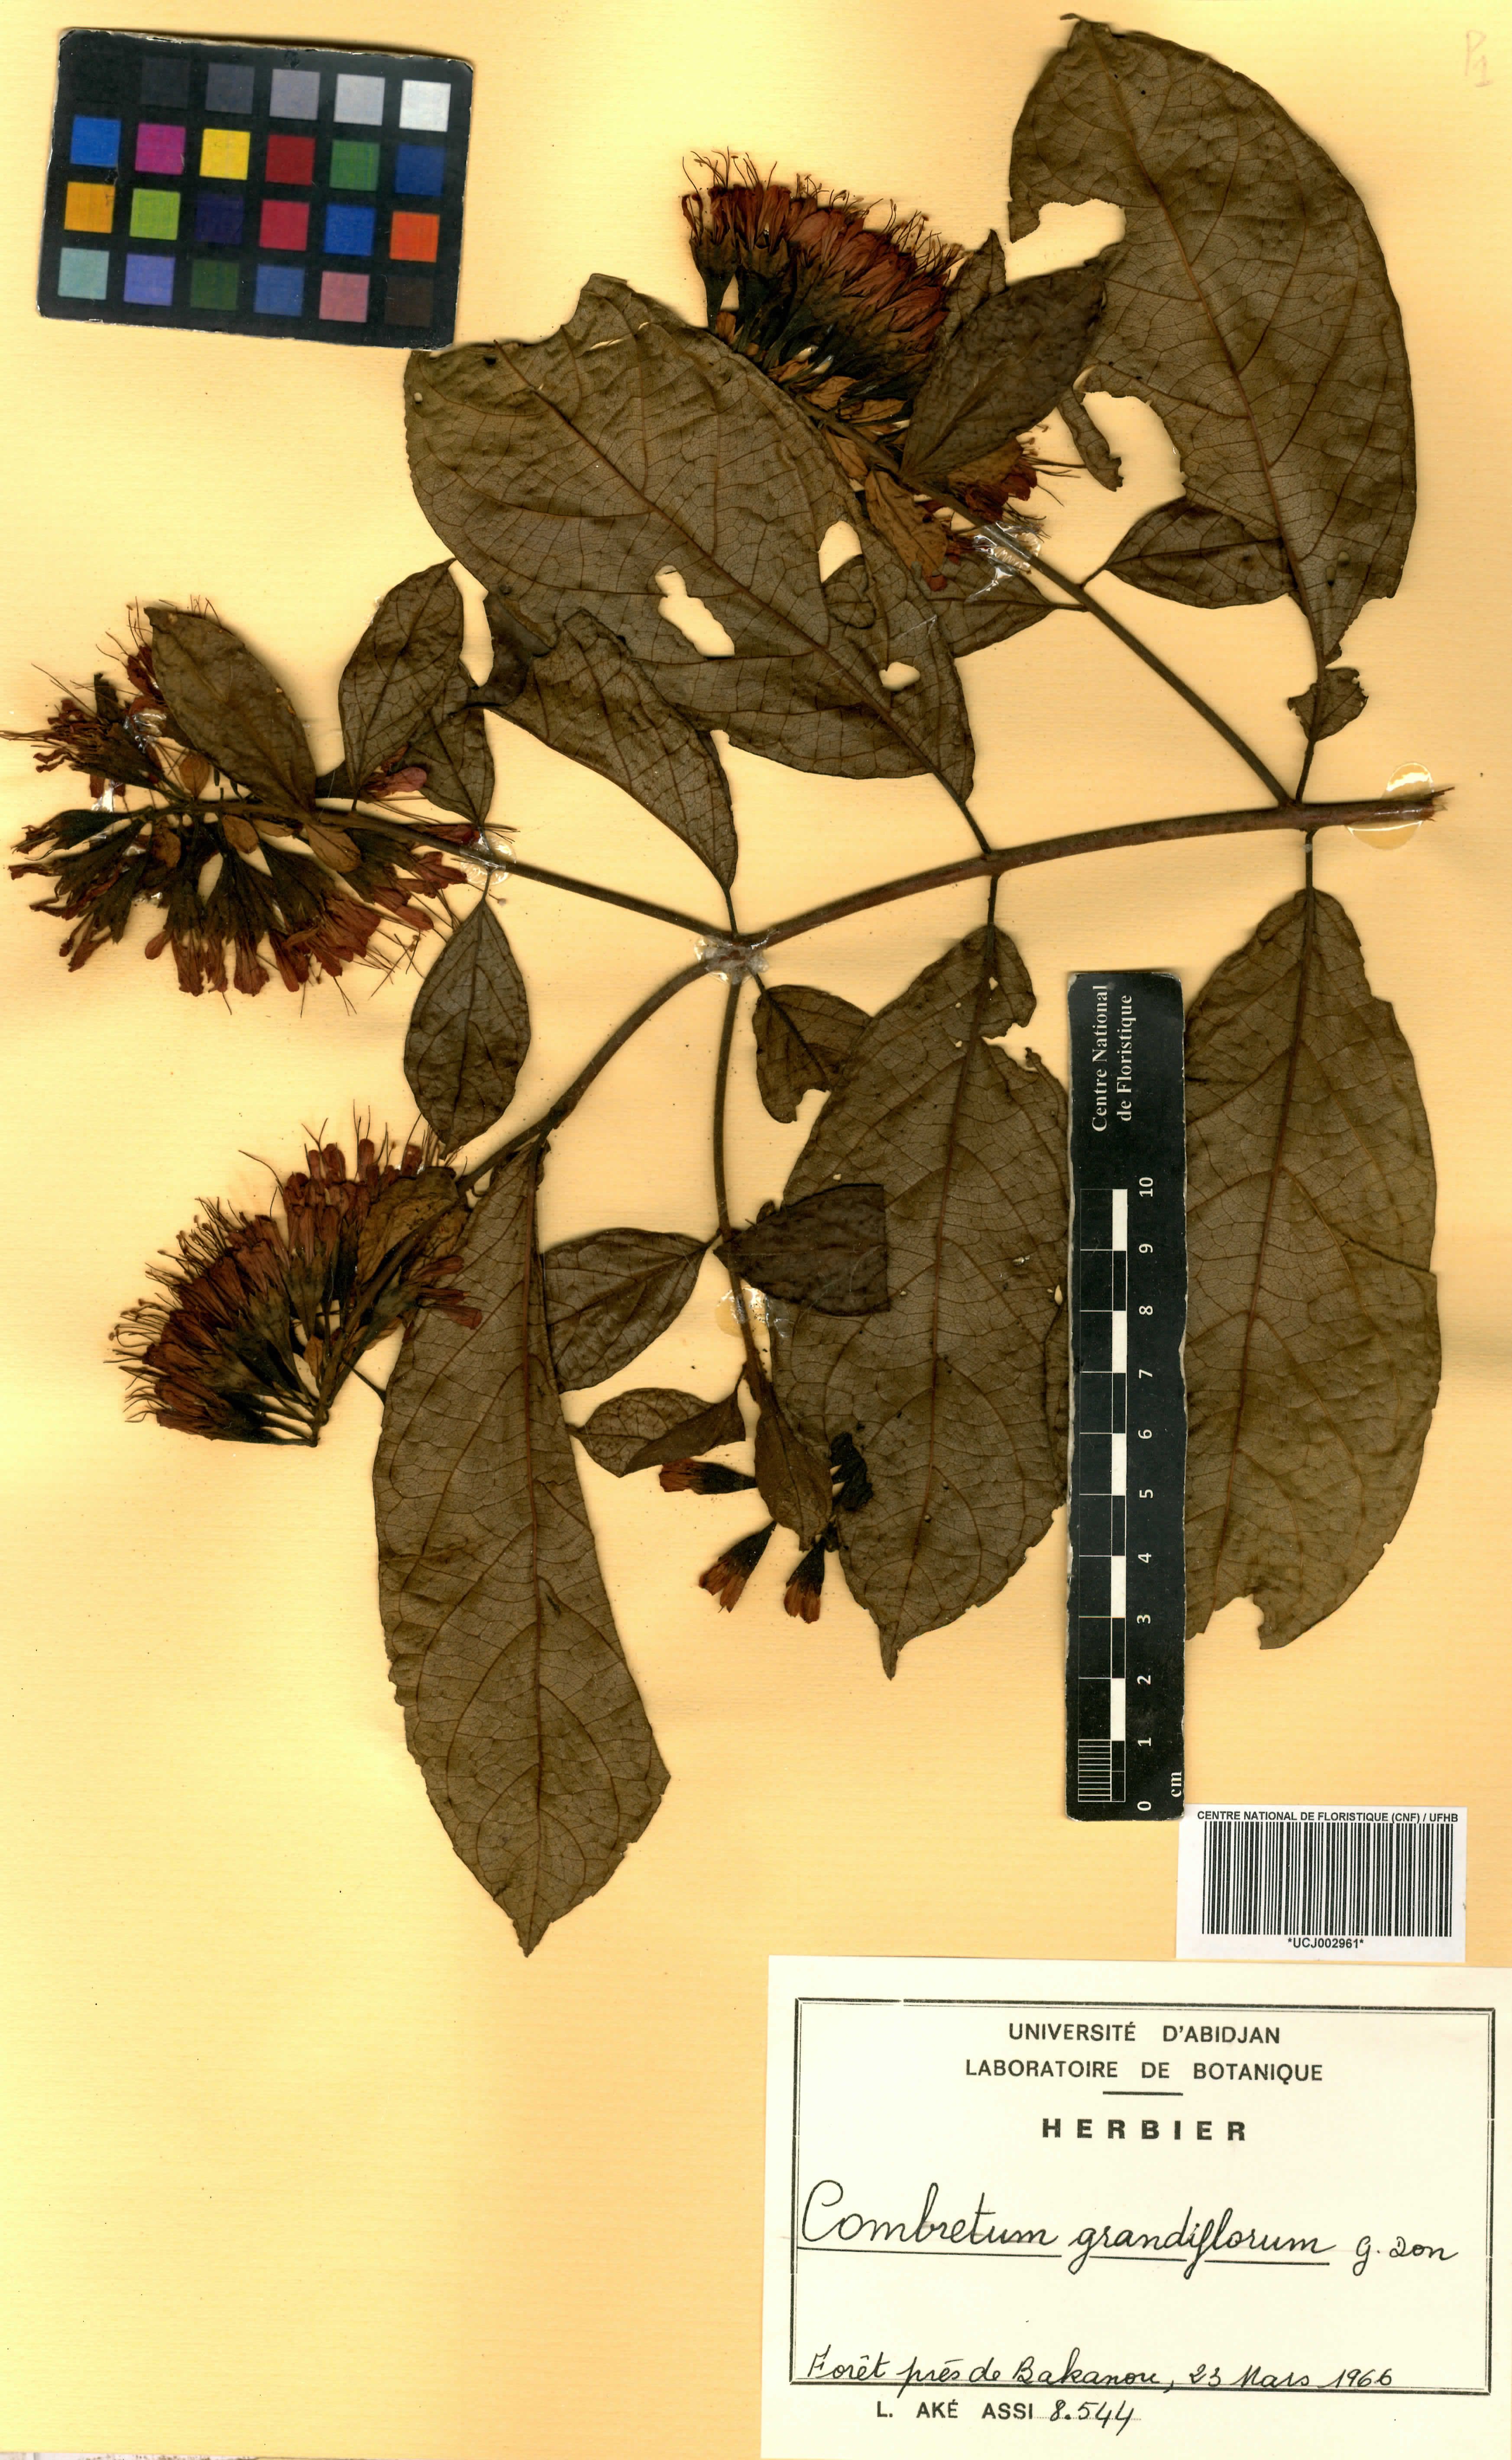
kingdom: Plantae
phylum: Tracheophyta
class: Magnoliopsida
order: Myrtales
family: Combretaceae
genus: Combretum
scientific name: Combretum grandiflorum
